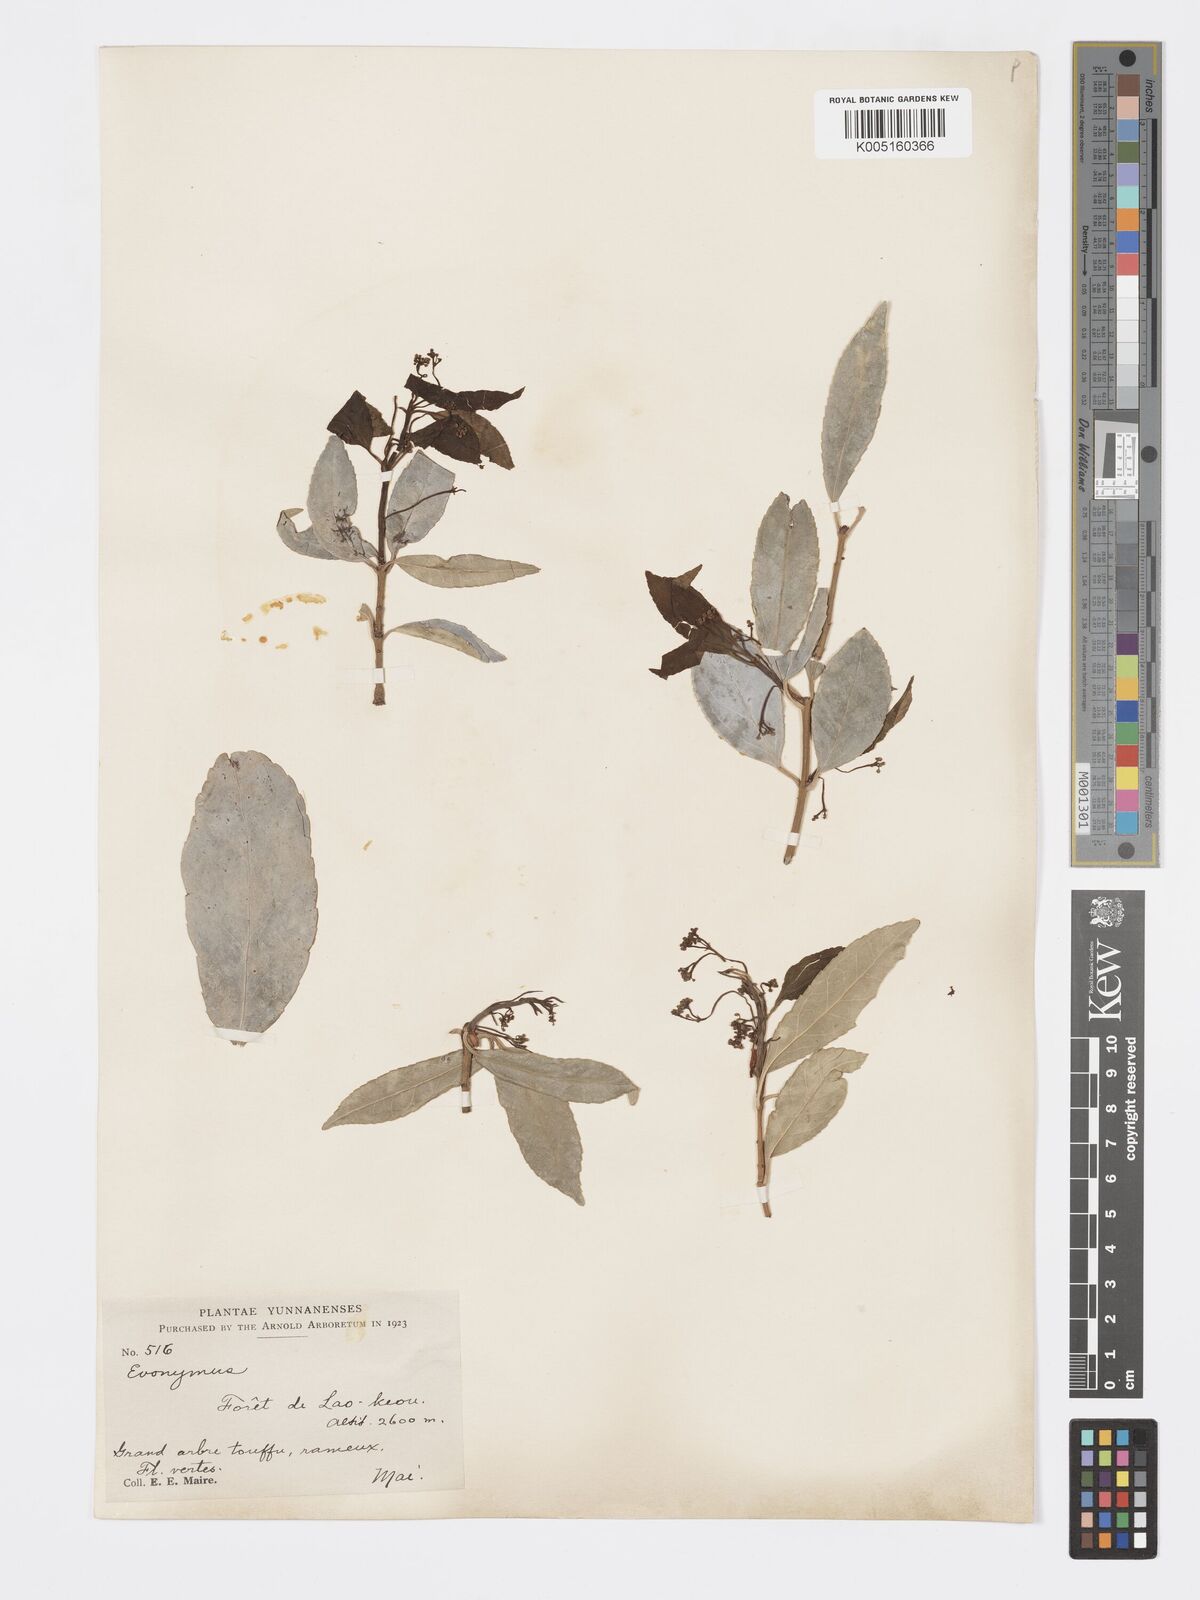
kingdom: Plantae
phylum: Tracheophyta
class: Magnoliopsida
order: Celastrales
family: Celastraceae
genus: Euonymus
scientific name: Euonymus
